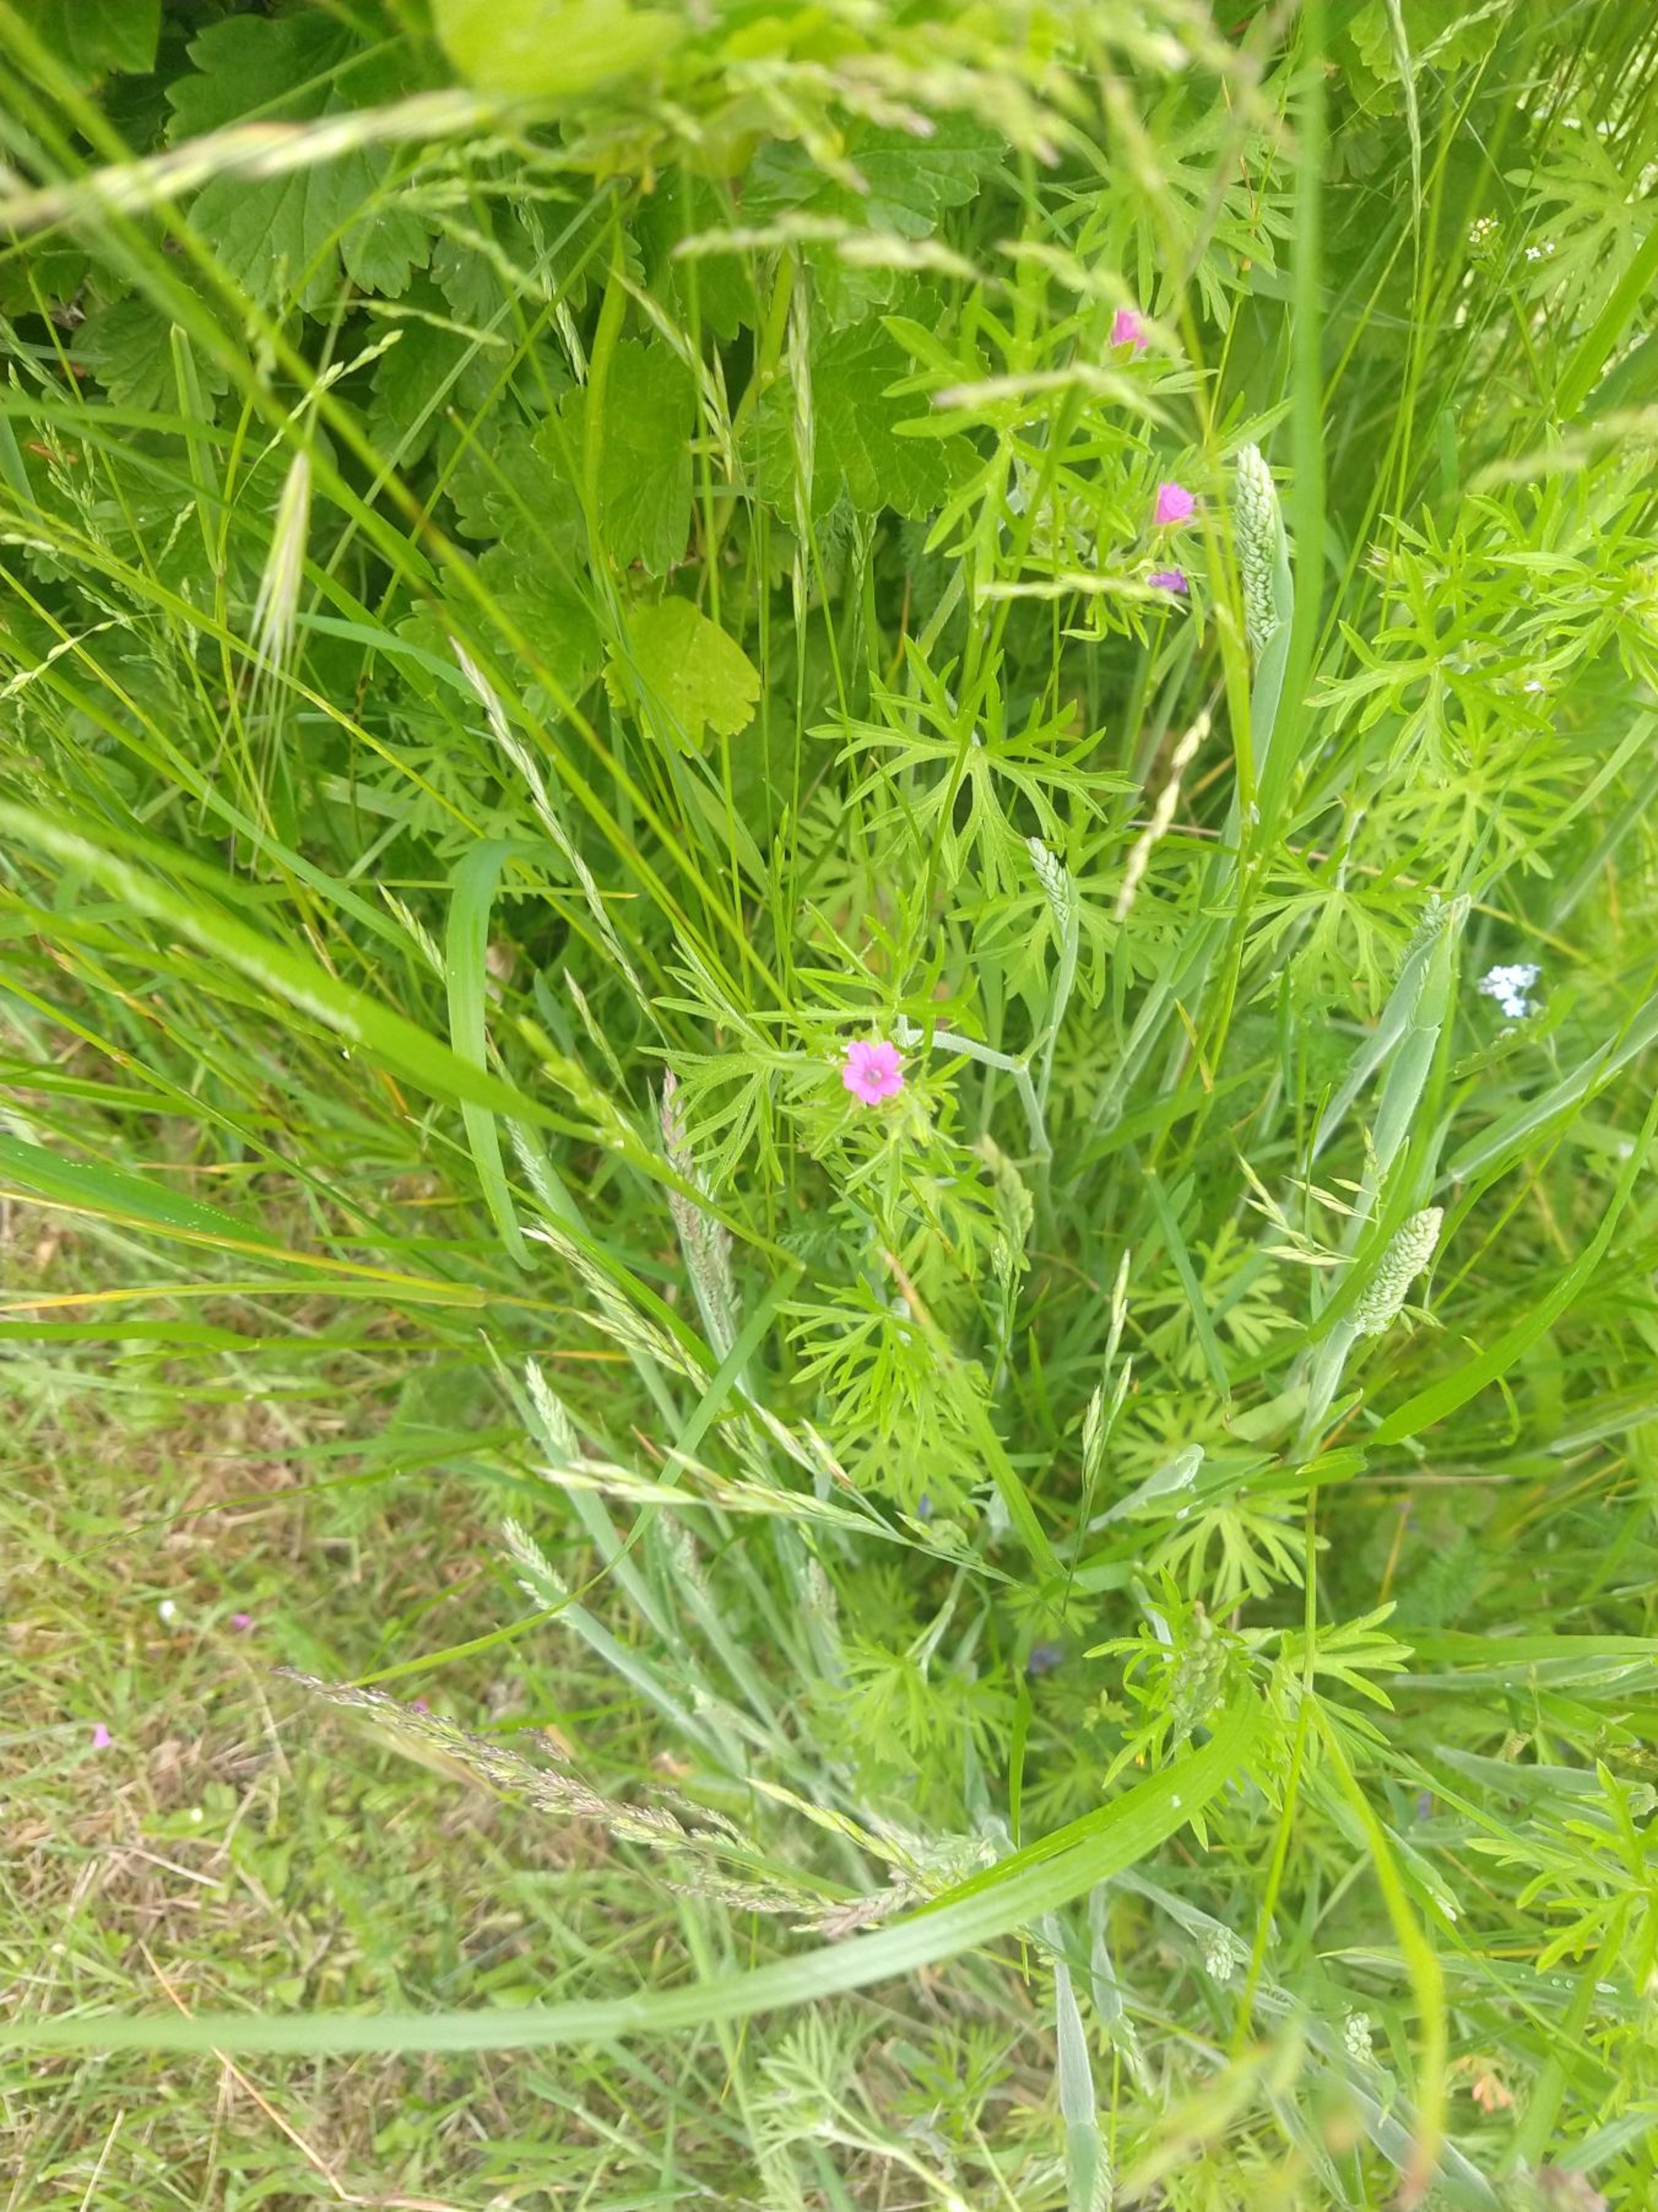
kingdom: Plantae
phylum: Tracheophyta
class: Magnoliopsida
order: Geraniales
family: Geraniaceae
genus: Geranium
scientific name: Geranium dissectum
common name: Kløftet storkenæb
